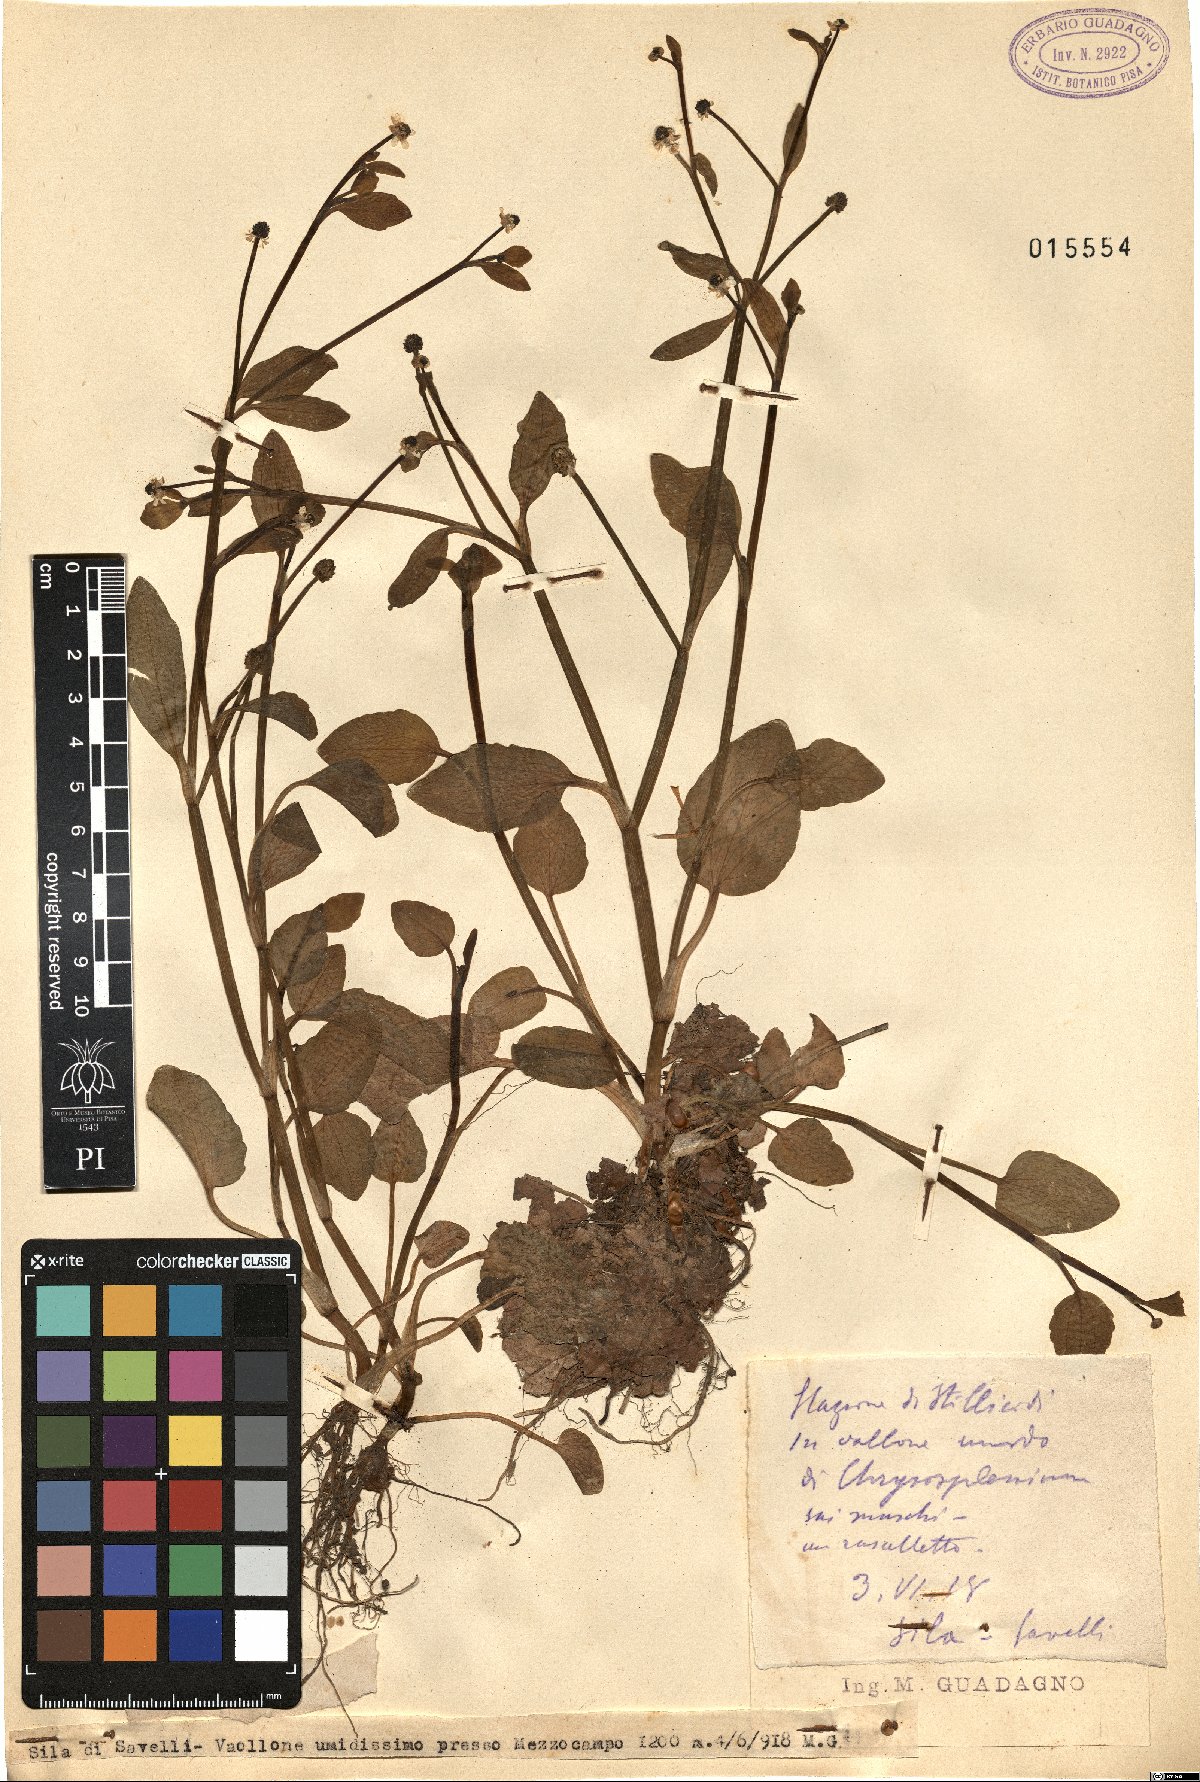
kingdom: Plantae
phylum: Tracheophyta
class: Magnoliopsida
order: Ranunculales
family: Ranunculaceae
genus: Ranunculus
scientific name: Ranunculus
